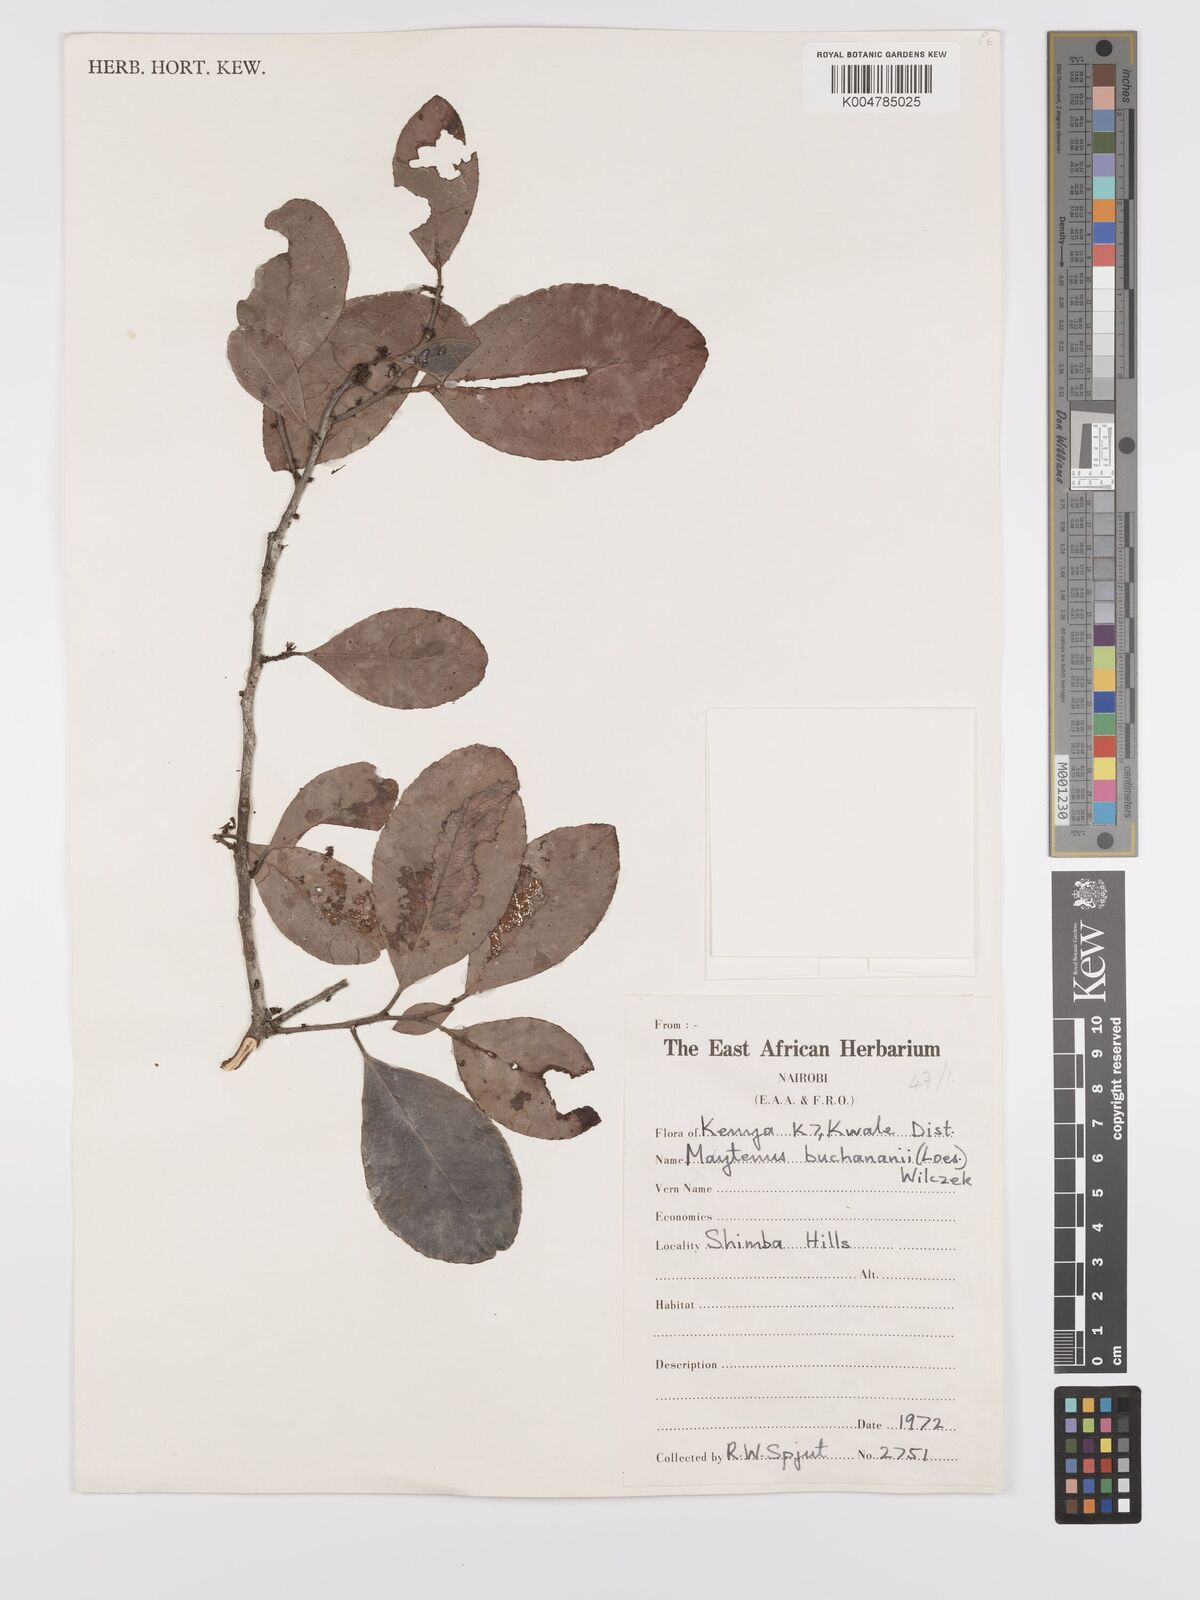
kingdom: Plantae
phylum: Tracheophyta
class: Magnoliopsida
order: Celastrales
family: Celastraceae
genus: Gymnosporia
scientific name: Gymnosporia buchananii
